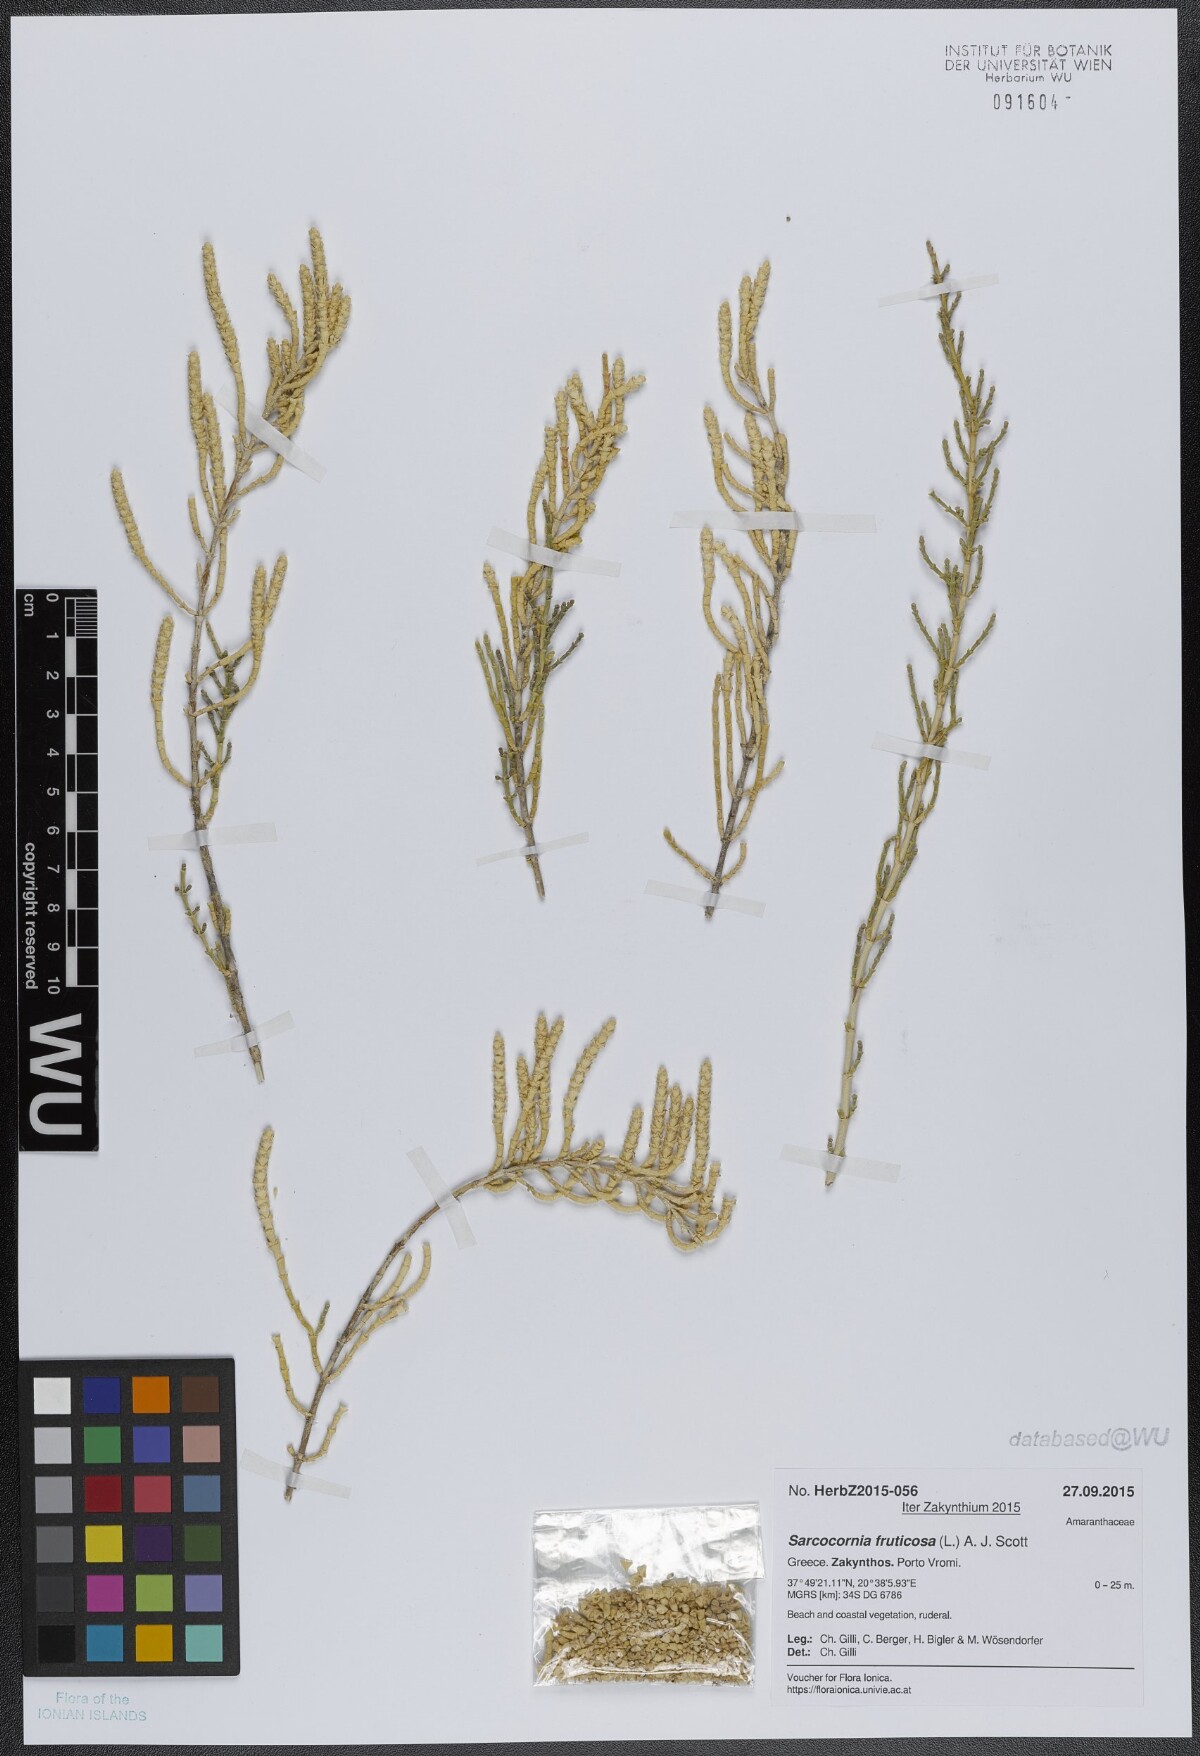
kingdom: Plantae
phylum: Tracheophyta
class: Magnoliopsida
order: Caryophyllales
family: Amaranthaceae
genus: Salicornia
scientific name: Salicornia fruticosa
